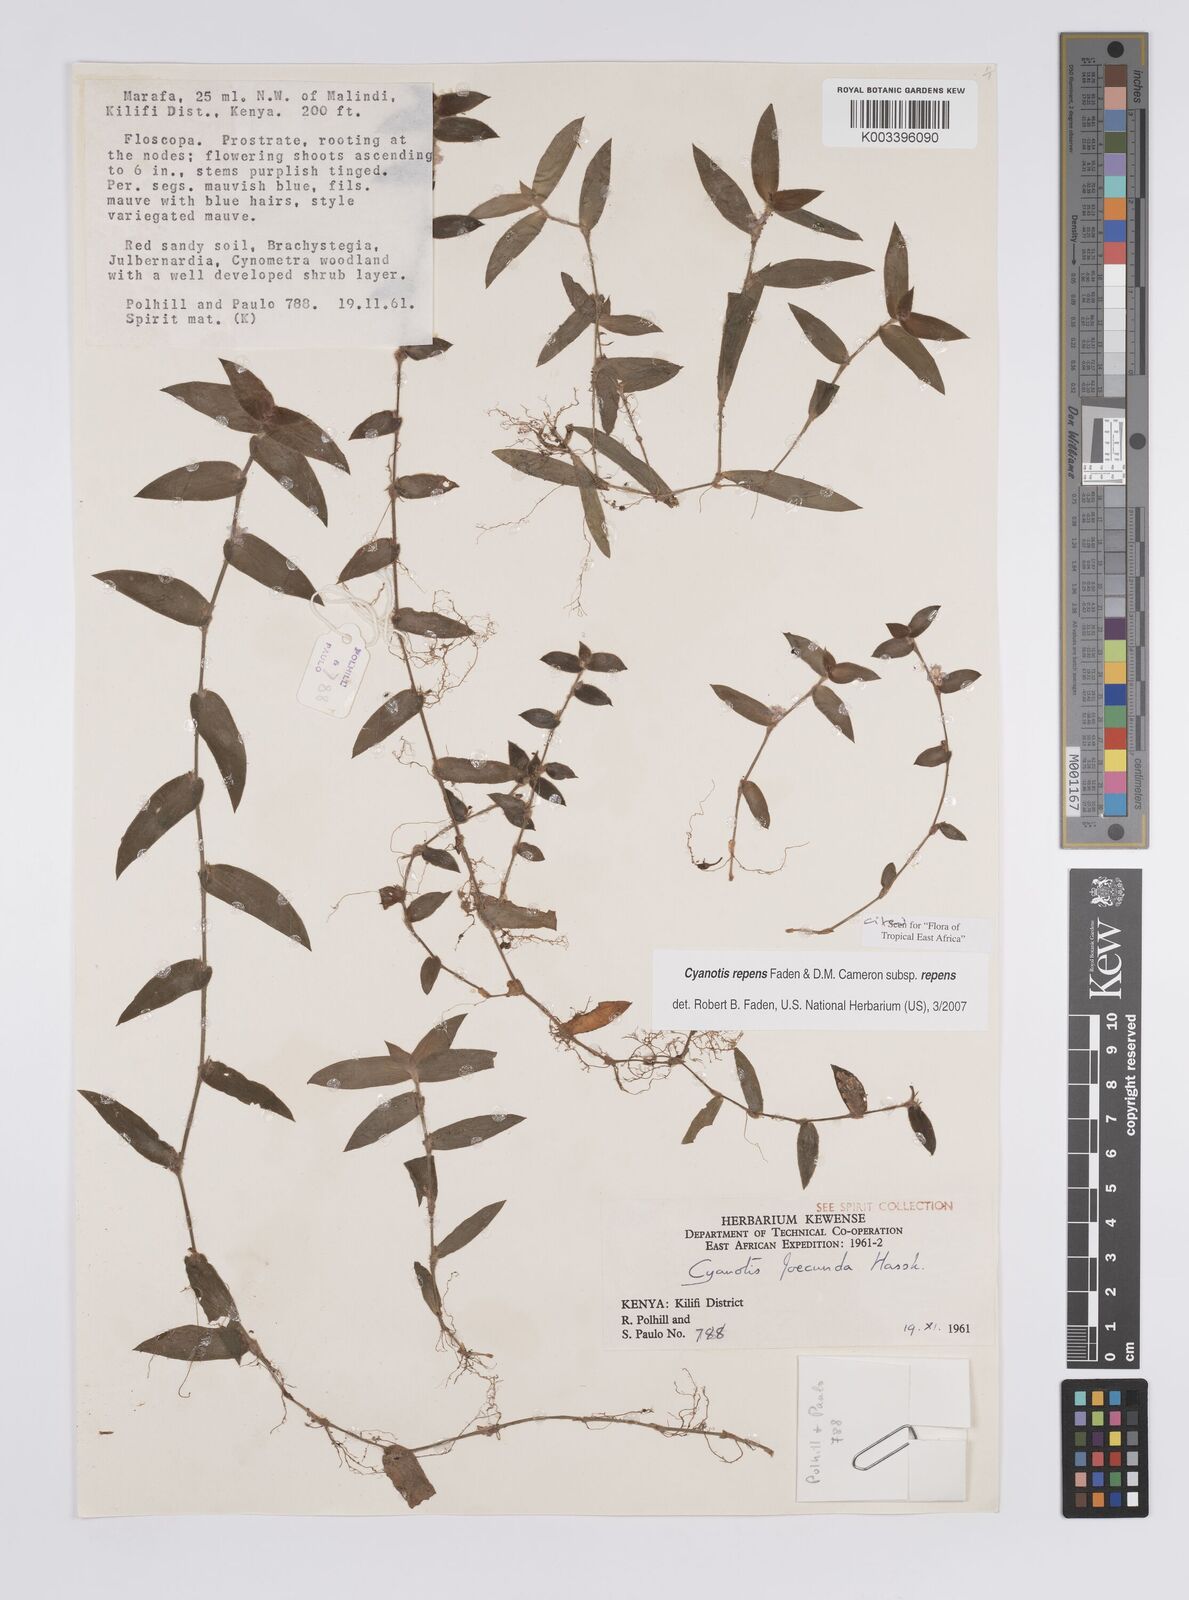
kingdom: Plantae
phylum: Tracheophyta
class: Liliopsida
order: Commelinales
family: Commelinaceae
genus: Cyanotis
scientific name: Cyanotis repens
